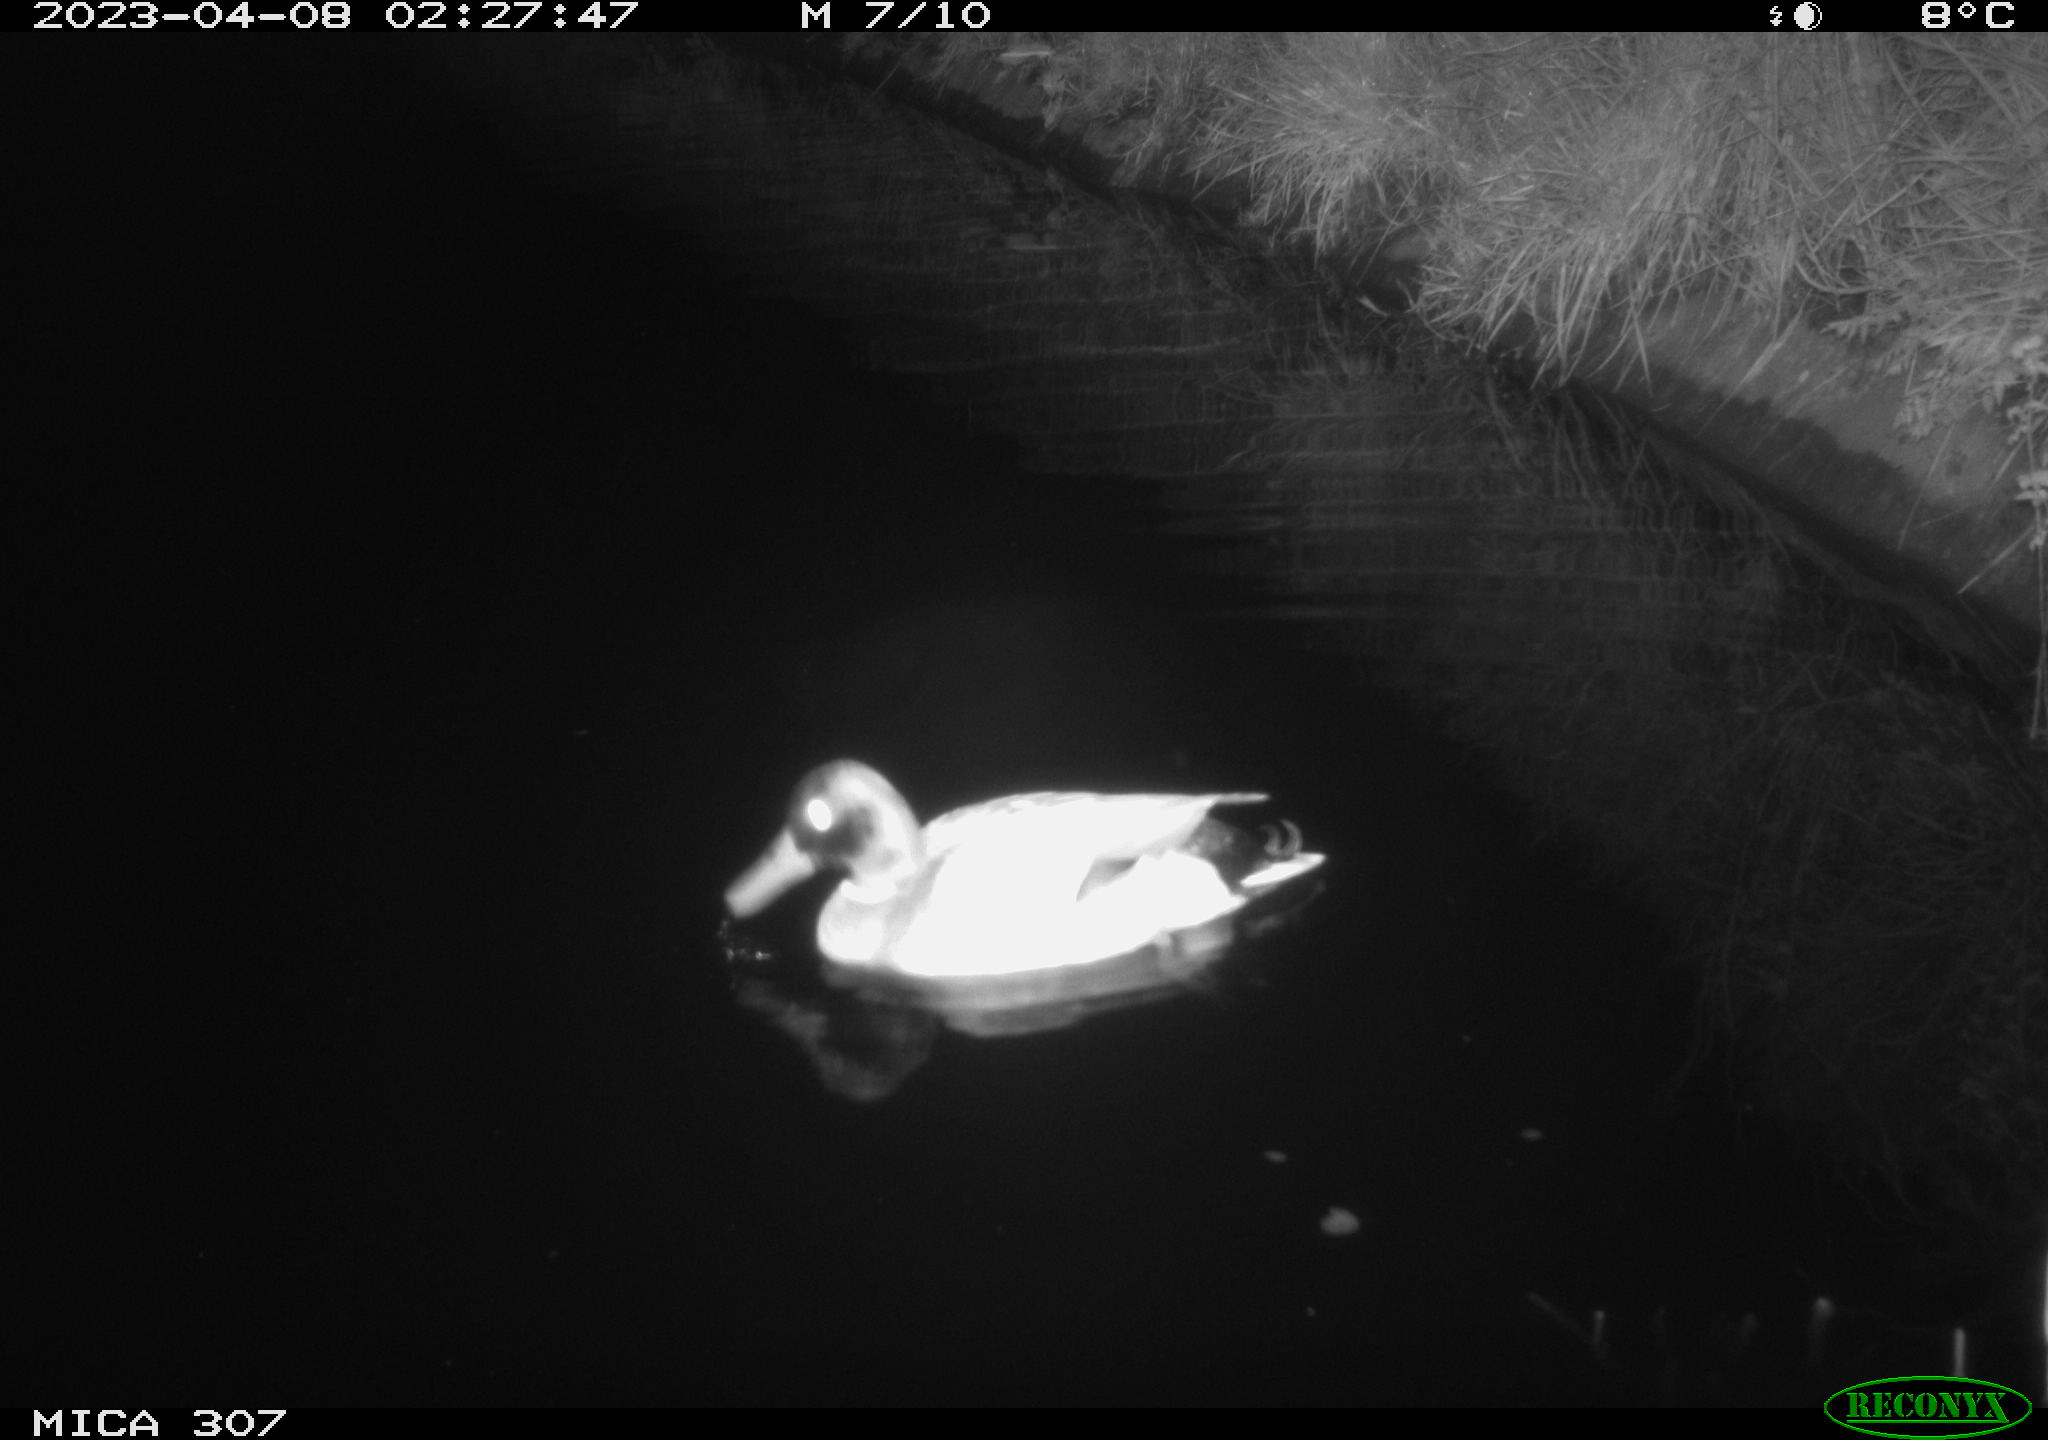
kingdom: Animalia
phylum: Chordata
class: Aves
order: Anseriformes
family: Anatidae
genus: Anas
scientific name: Anas
